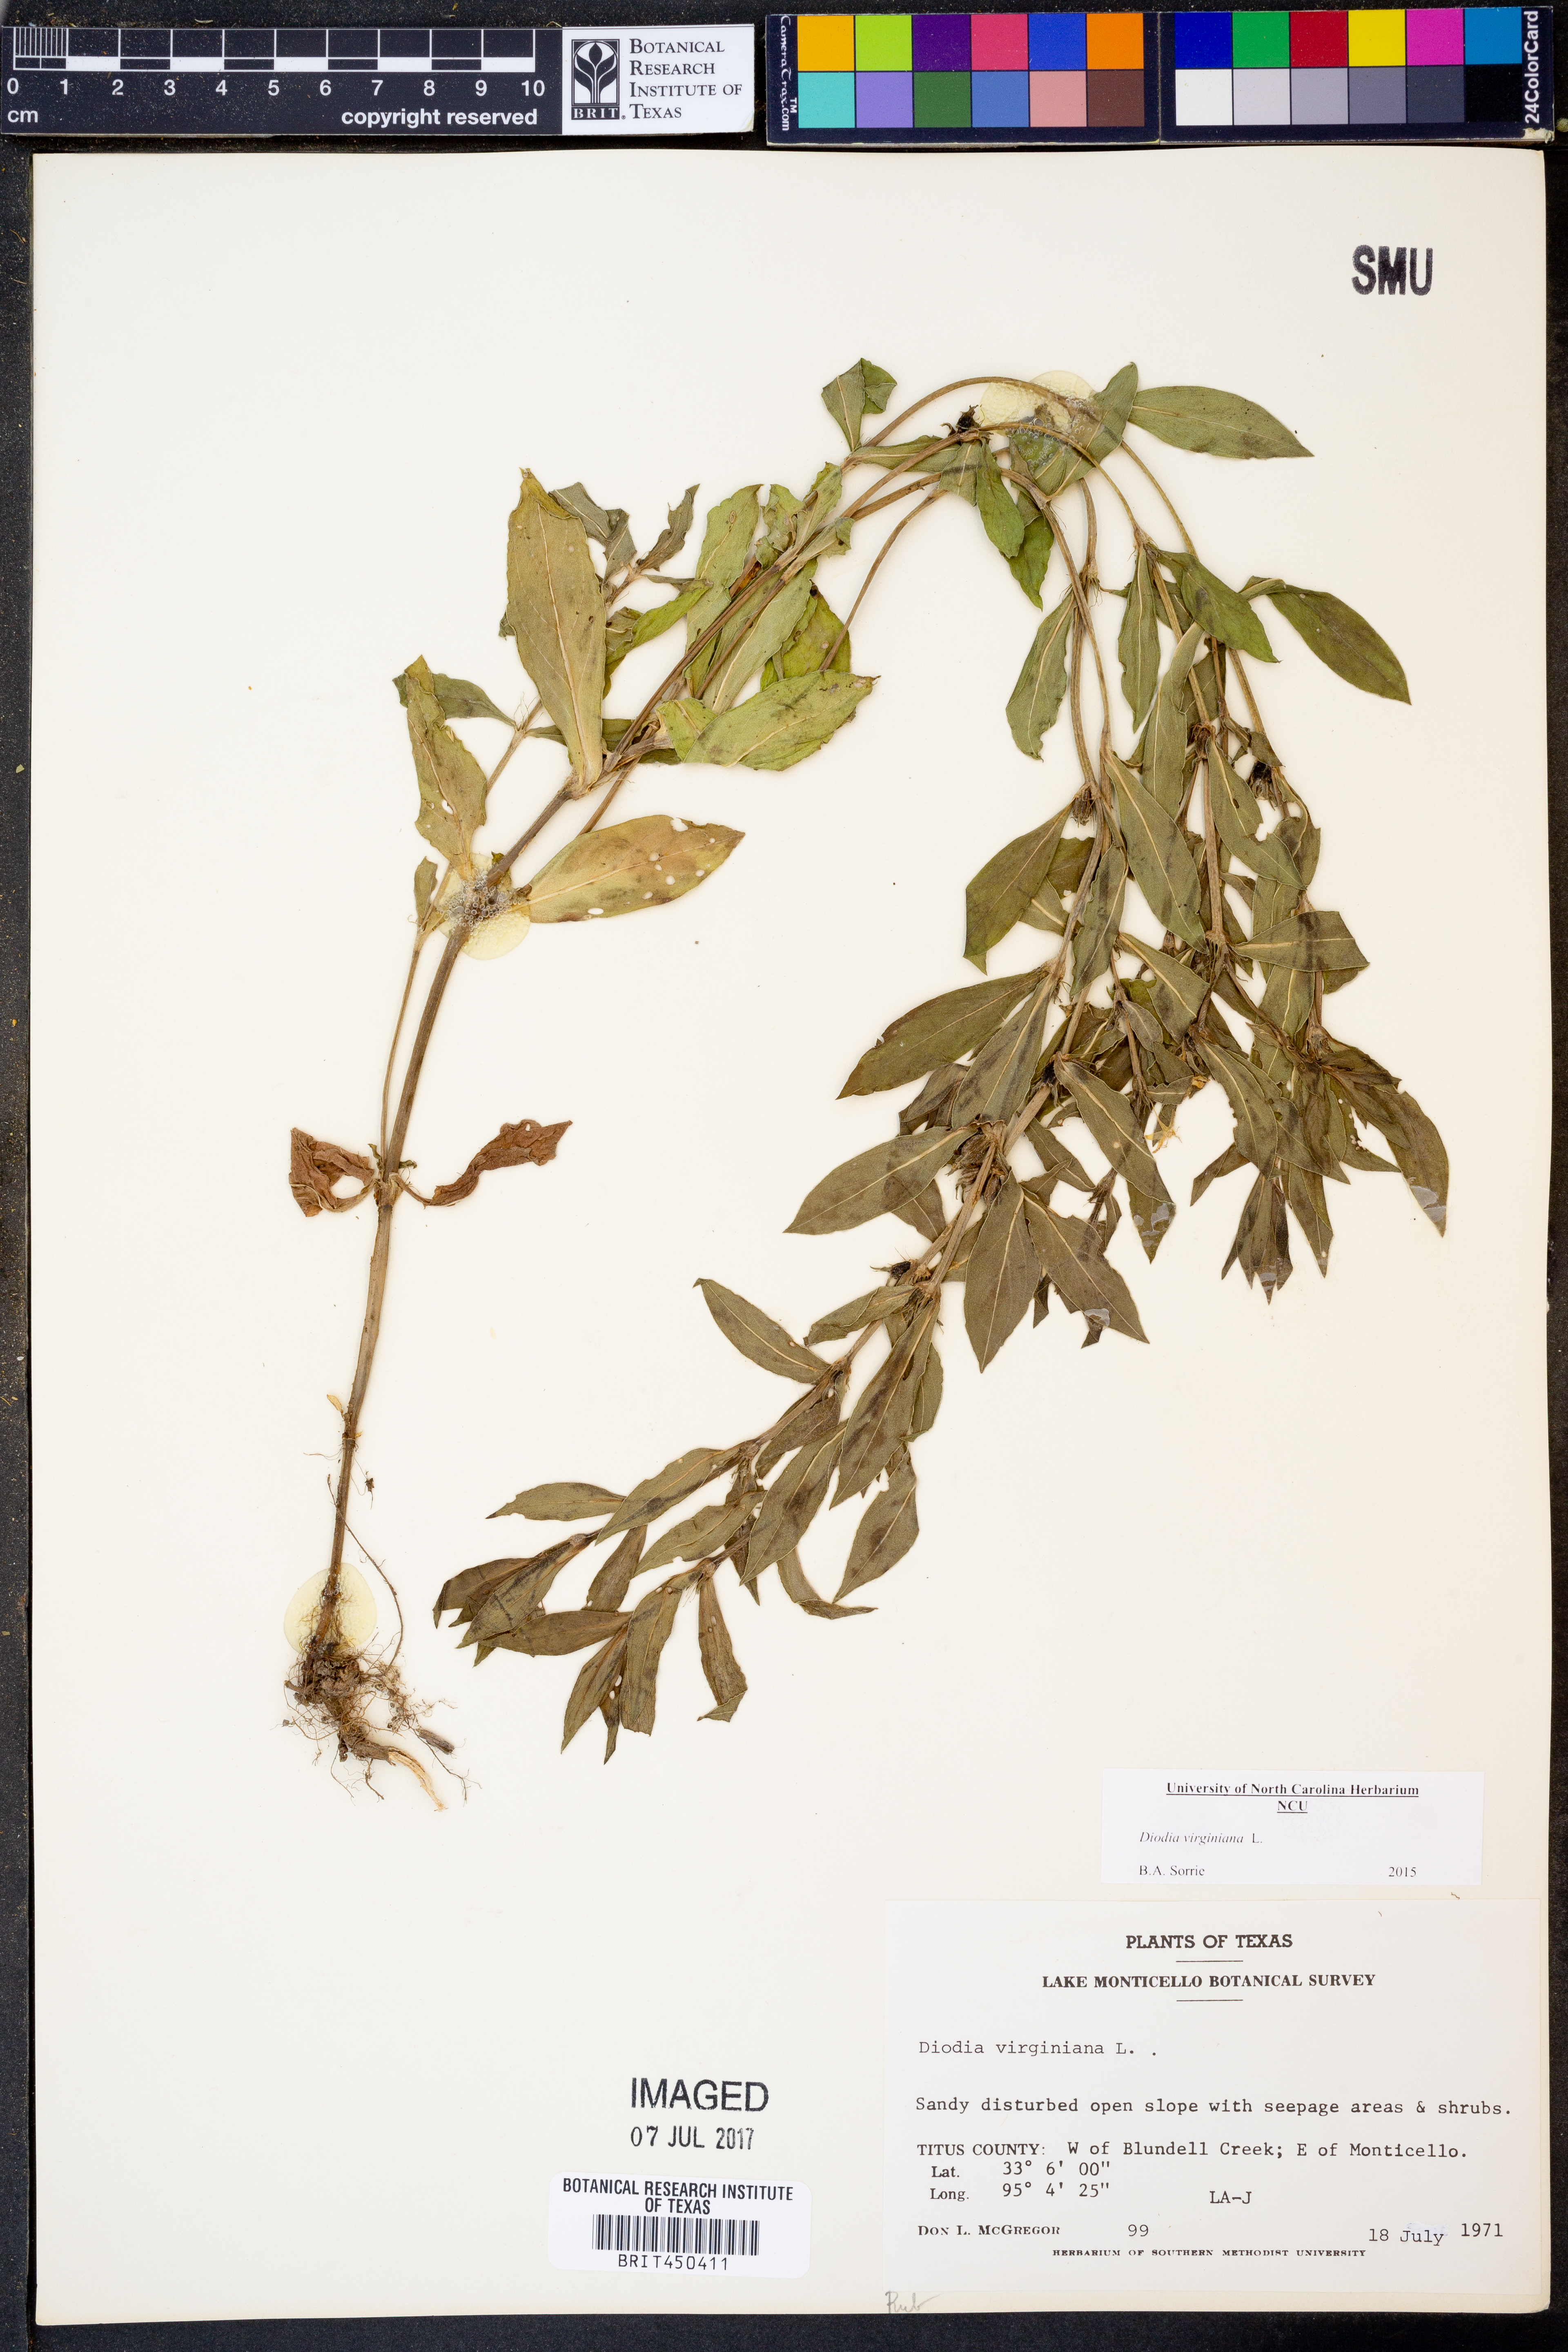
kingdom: Plantae
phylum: Tracheophyta
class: Magnoliopsida
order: Gentianales
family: Rubiaceae
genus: Diodia
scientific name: Diodia virginiana
